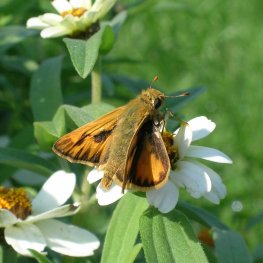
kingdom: Animalia
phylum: Arthropoda
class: Insecta
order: Lepidoptera
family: Hesperiidae
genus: Hylephila
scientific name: Hylephila phyleus
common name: Fiery Skipper
